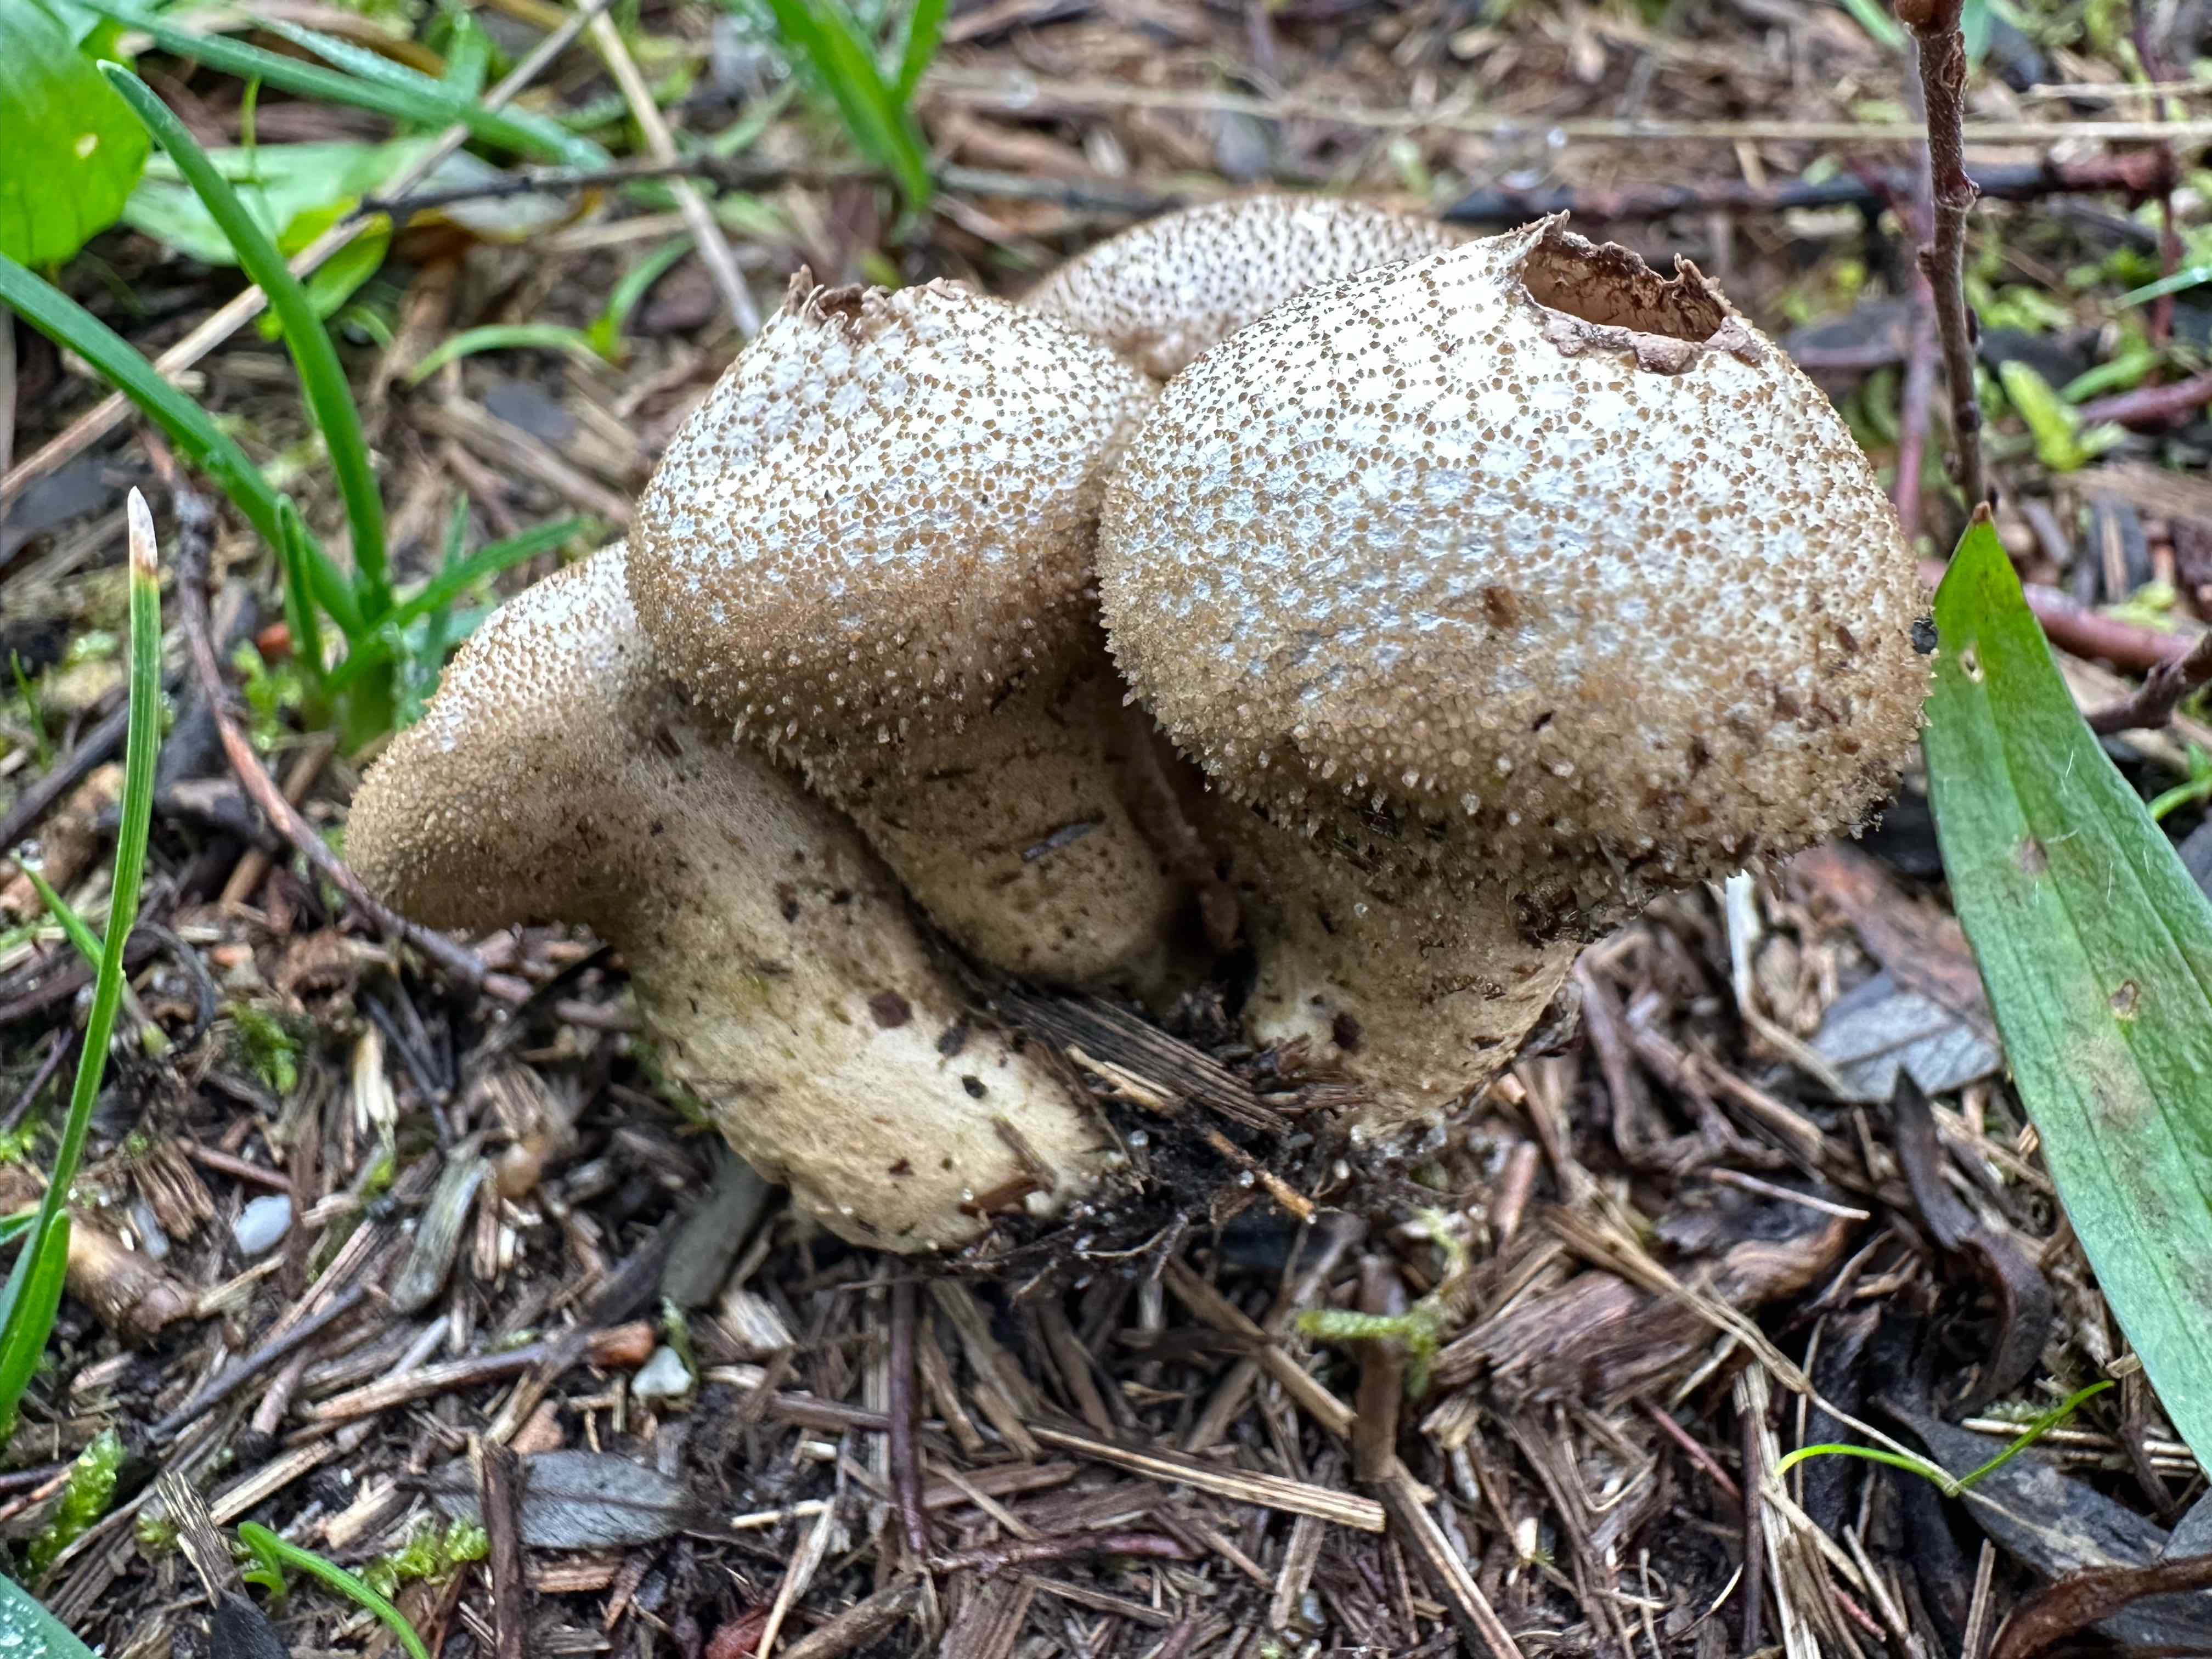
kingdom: Fungi
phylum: Basidiomycota
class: Agaricomycetes
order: Agaricales
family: Lycoperdaceae
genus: Lycoperdon
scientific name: Lycoperdon perlatum
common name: krystal-støvbold
